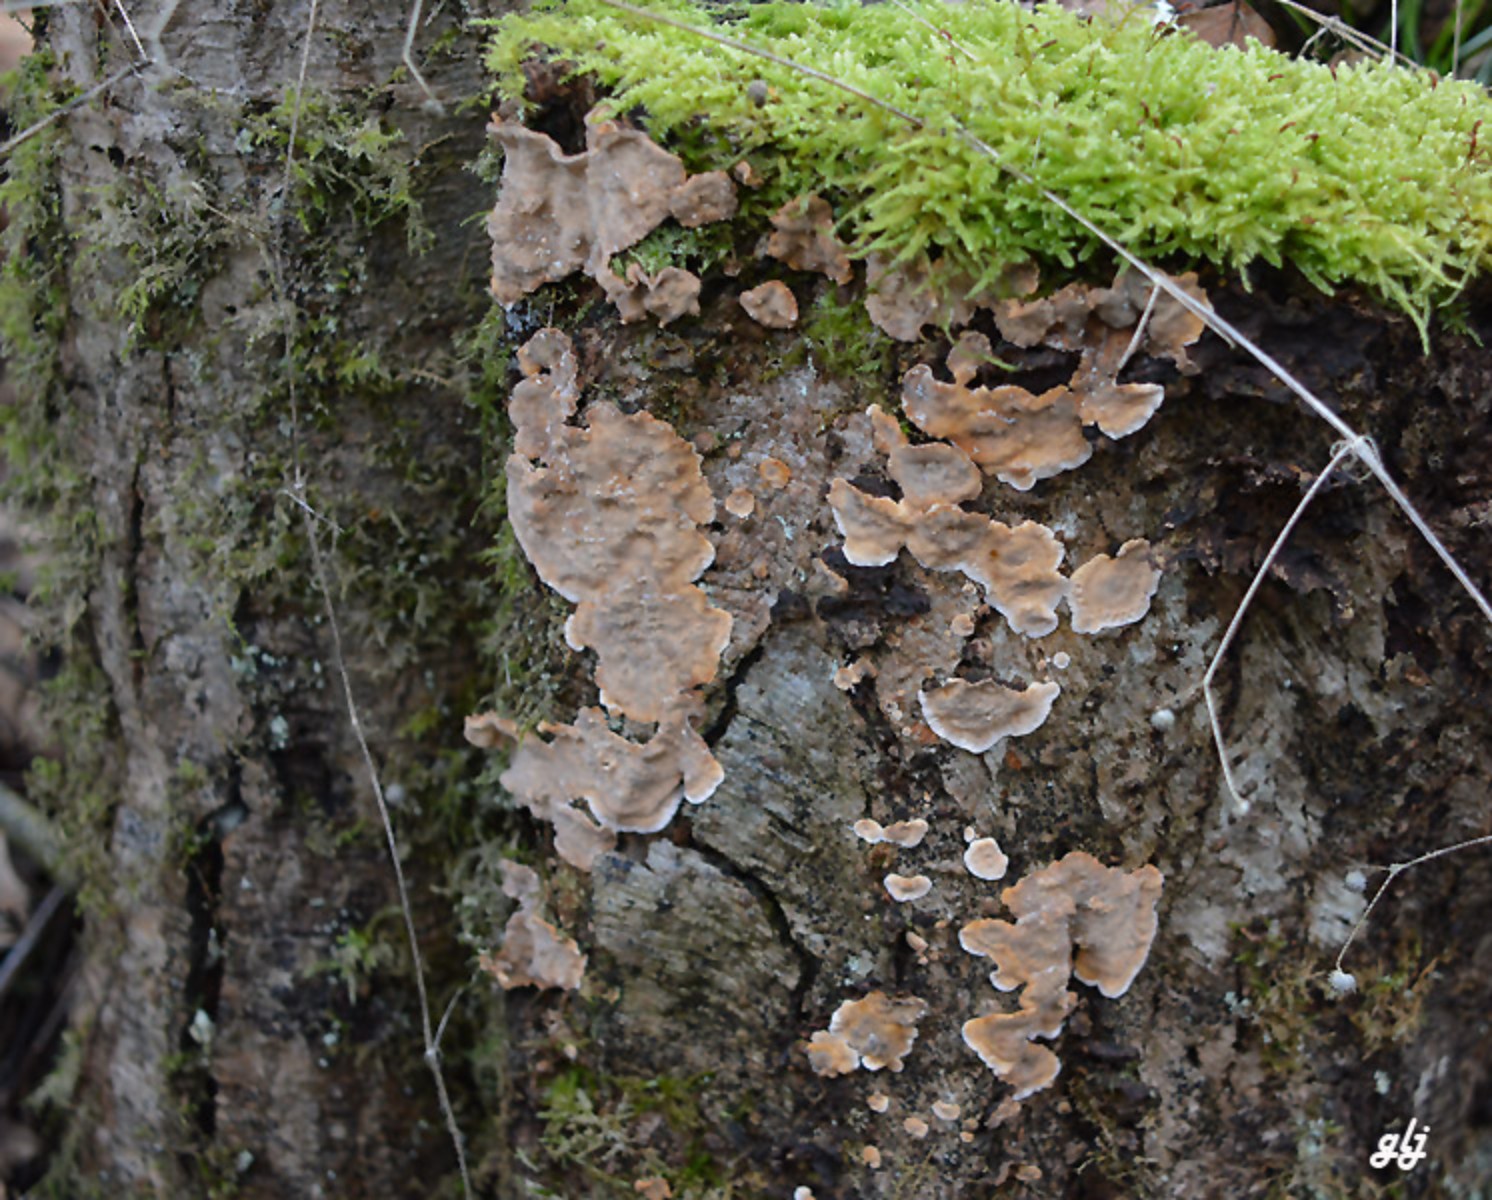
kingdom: Fungi
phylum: Basidiomycota
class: Agaricomycetes
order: Russulales
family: Stereaceae
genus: Stereum
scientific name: Stereum rugosum
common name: rynket lædersvamp
